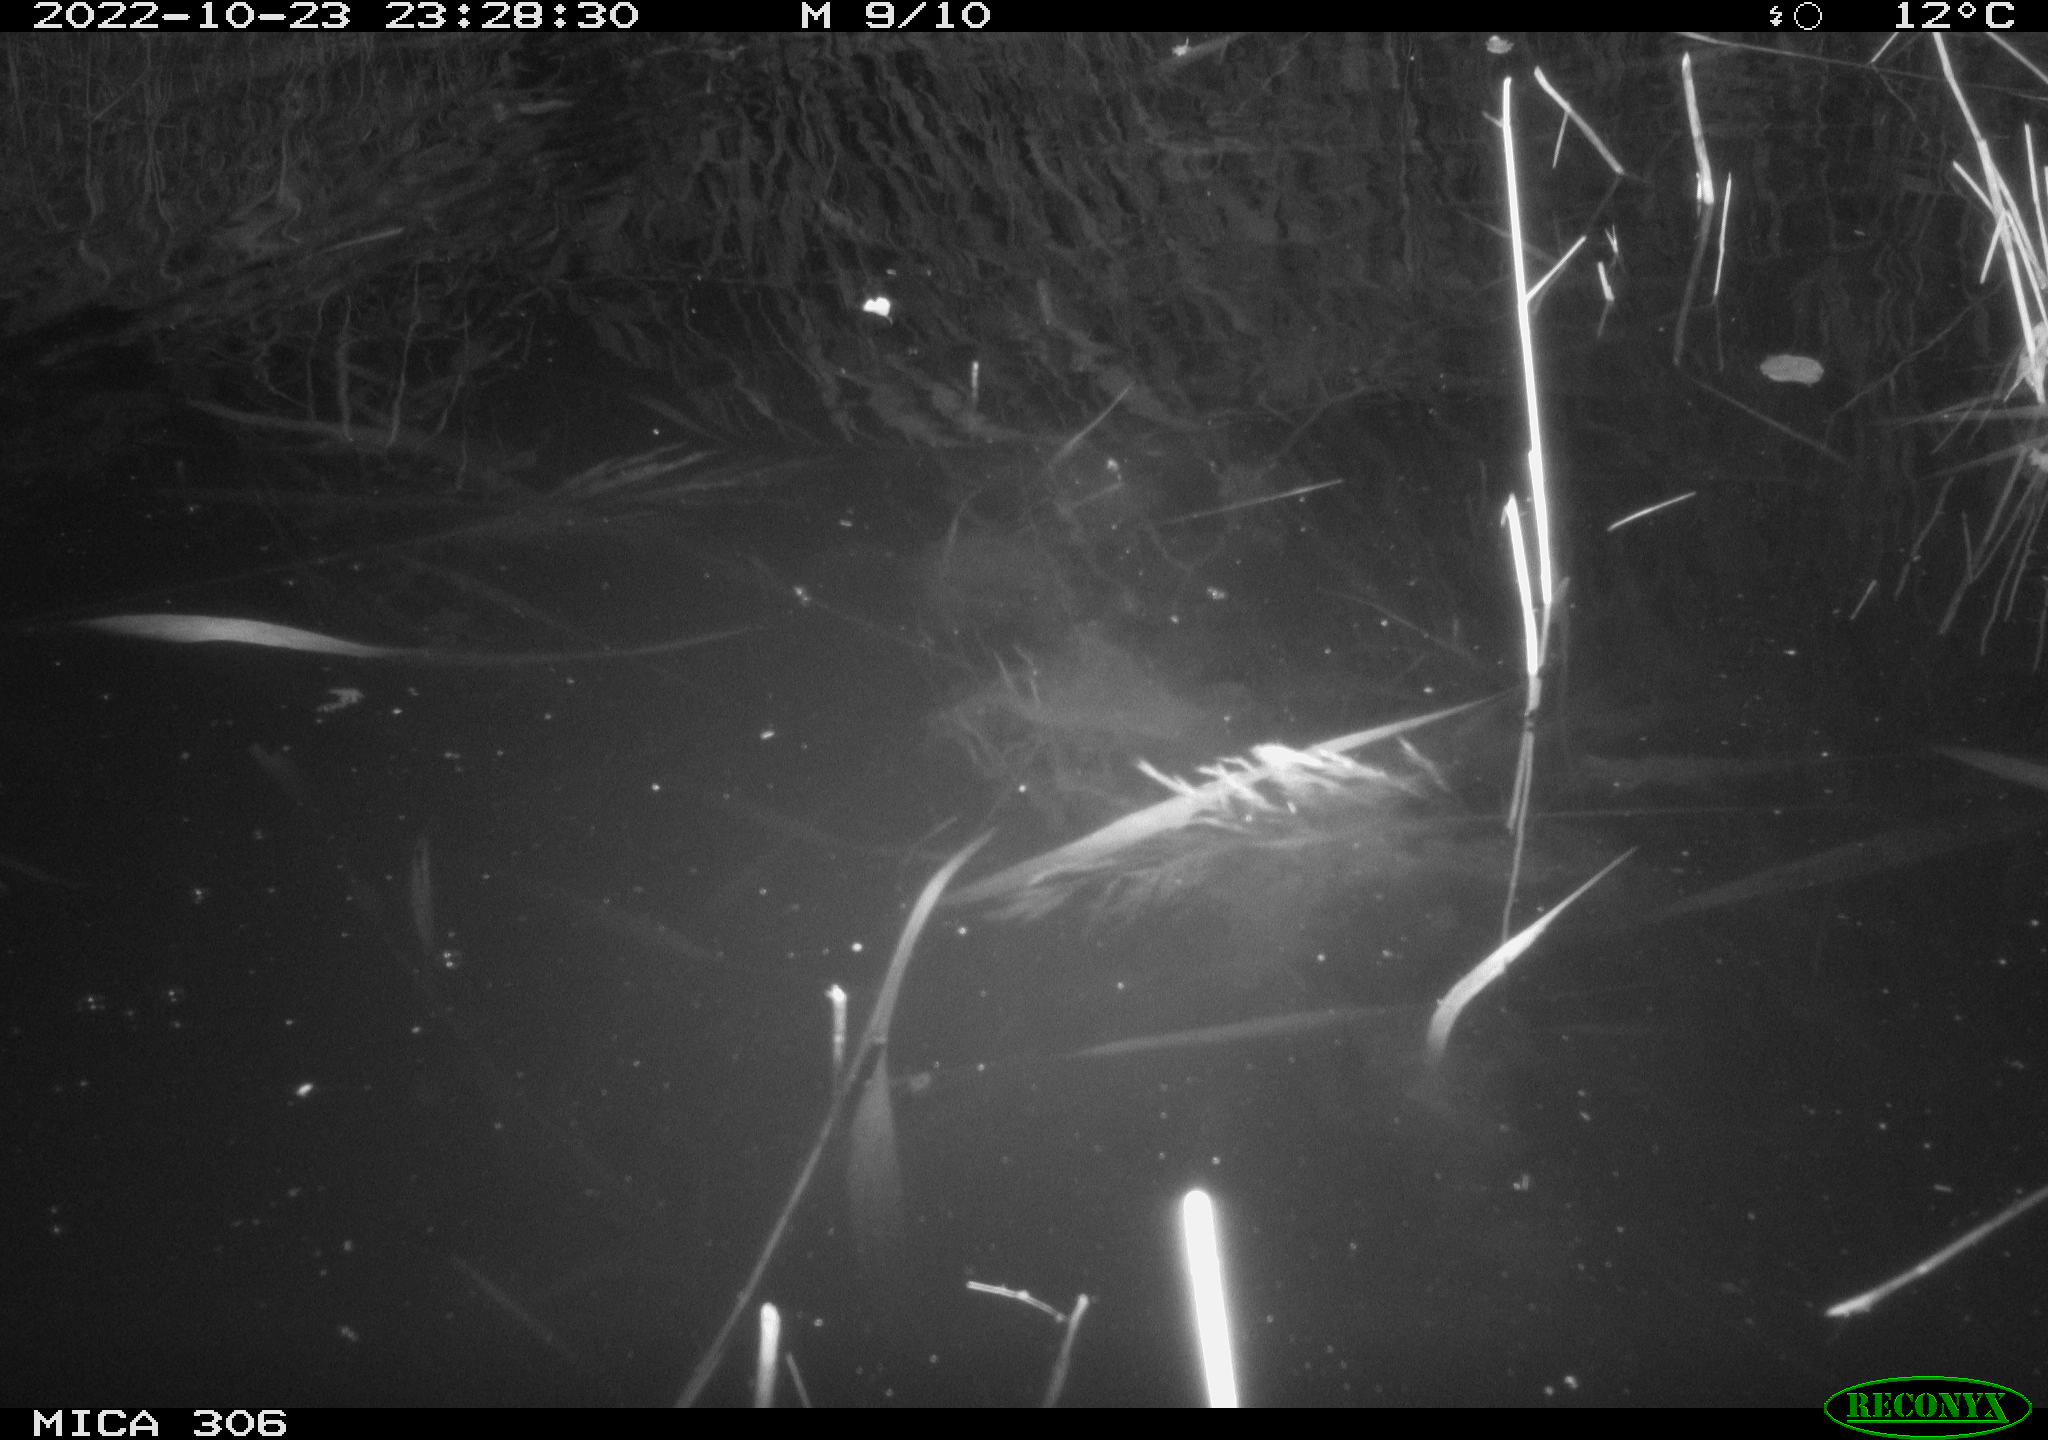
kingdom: Animalia
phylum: Chordata
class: Mammalia
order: Rodentia
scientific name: Rodentia
